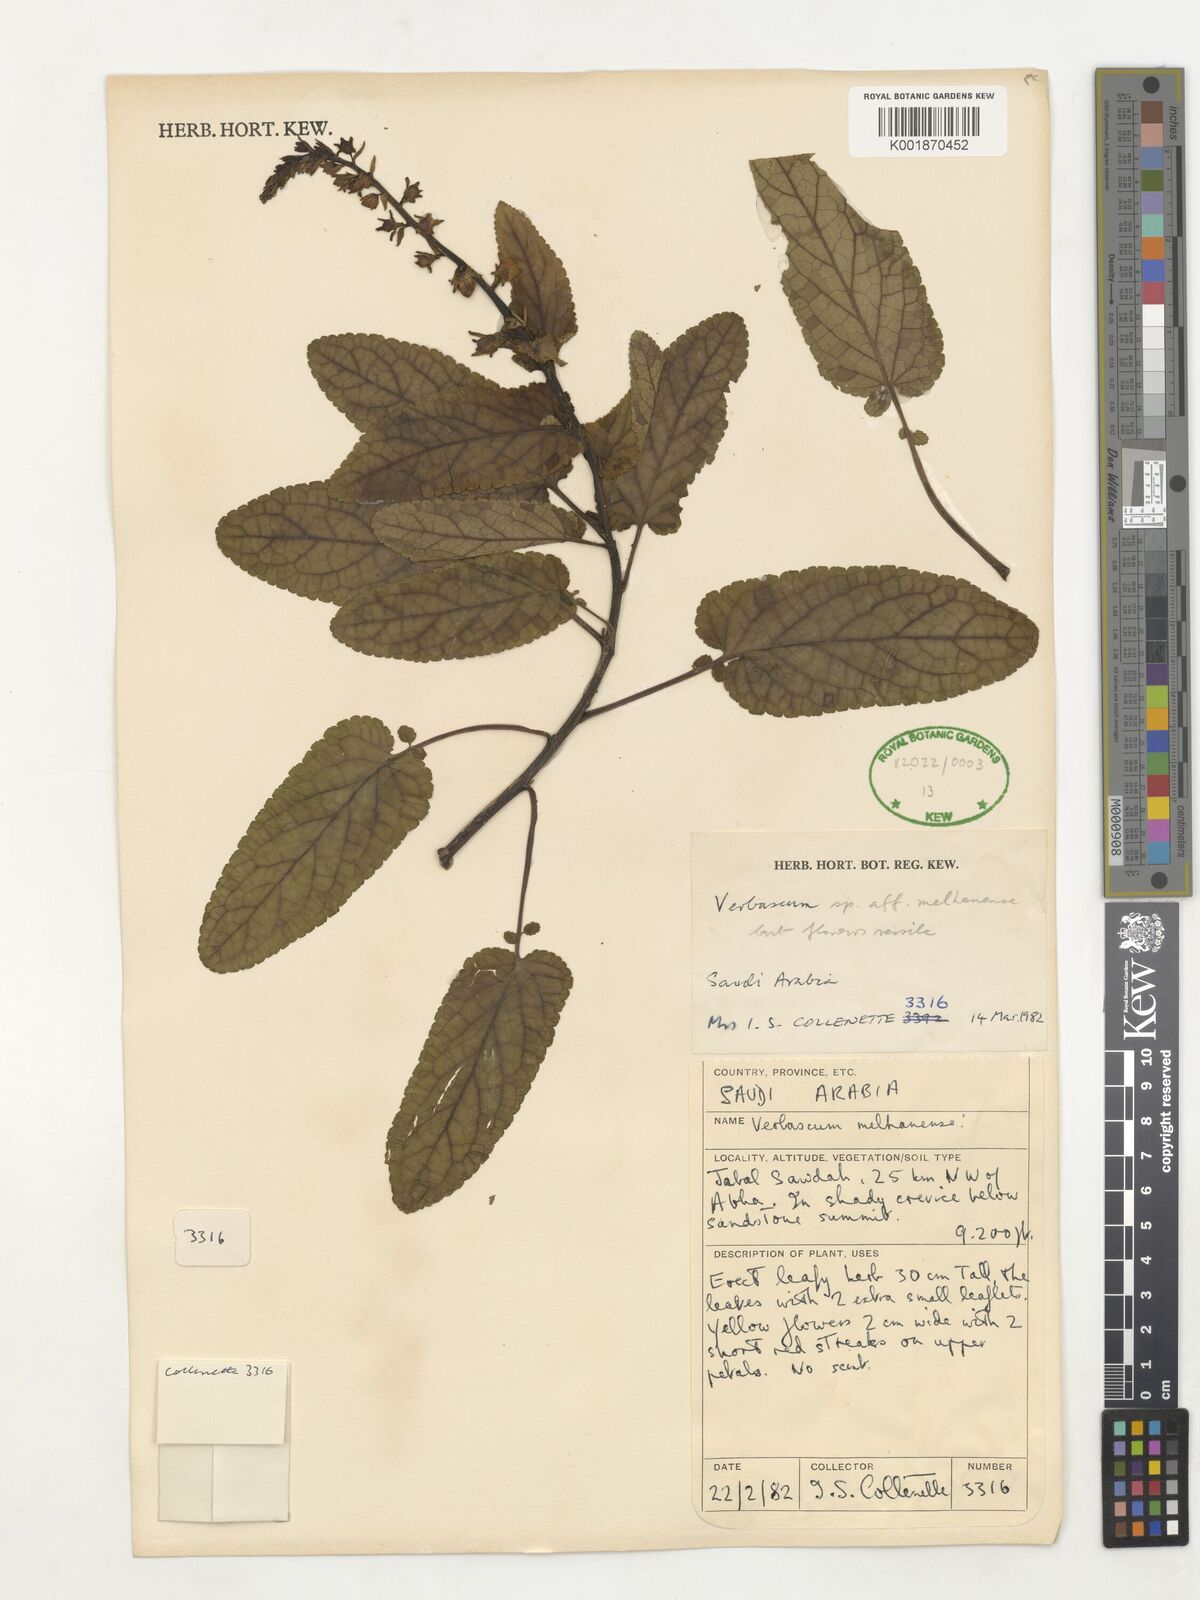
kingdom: Plantae
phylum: Tracheophyta
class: Magnoliopsida
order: Lamiales
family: Scrophulariaceae
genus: Verbascum
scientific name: Verbascum melhanense
